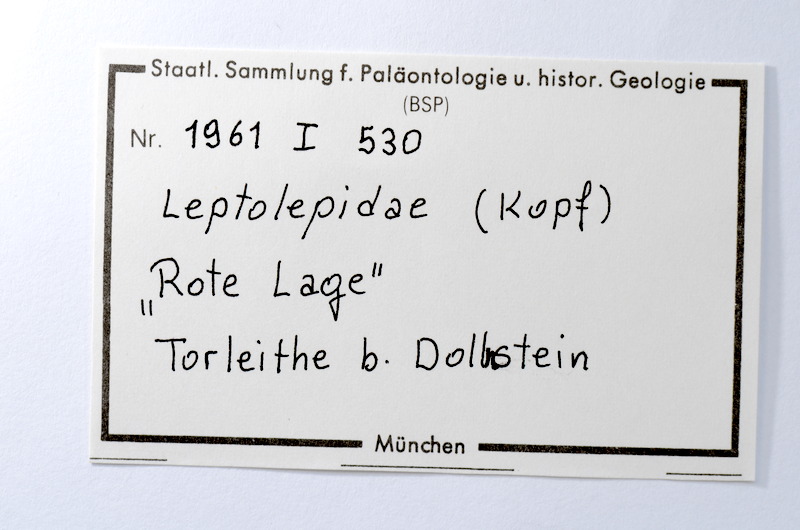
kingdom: Animalia
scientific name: Animalia
